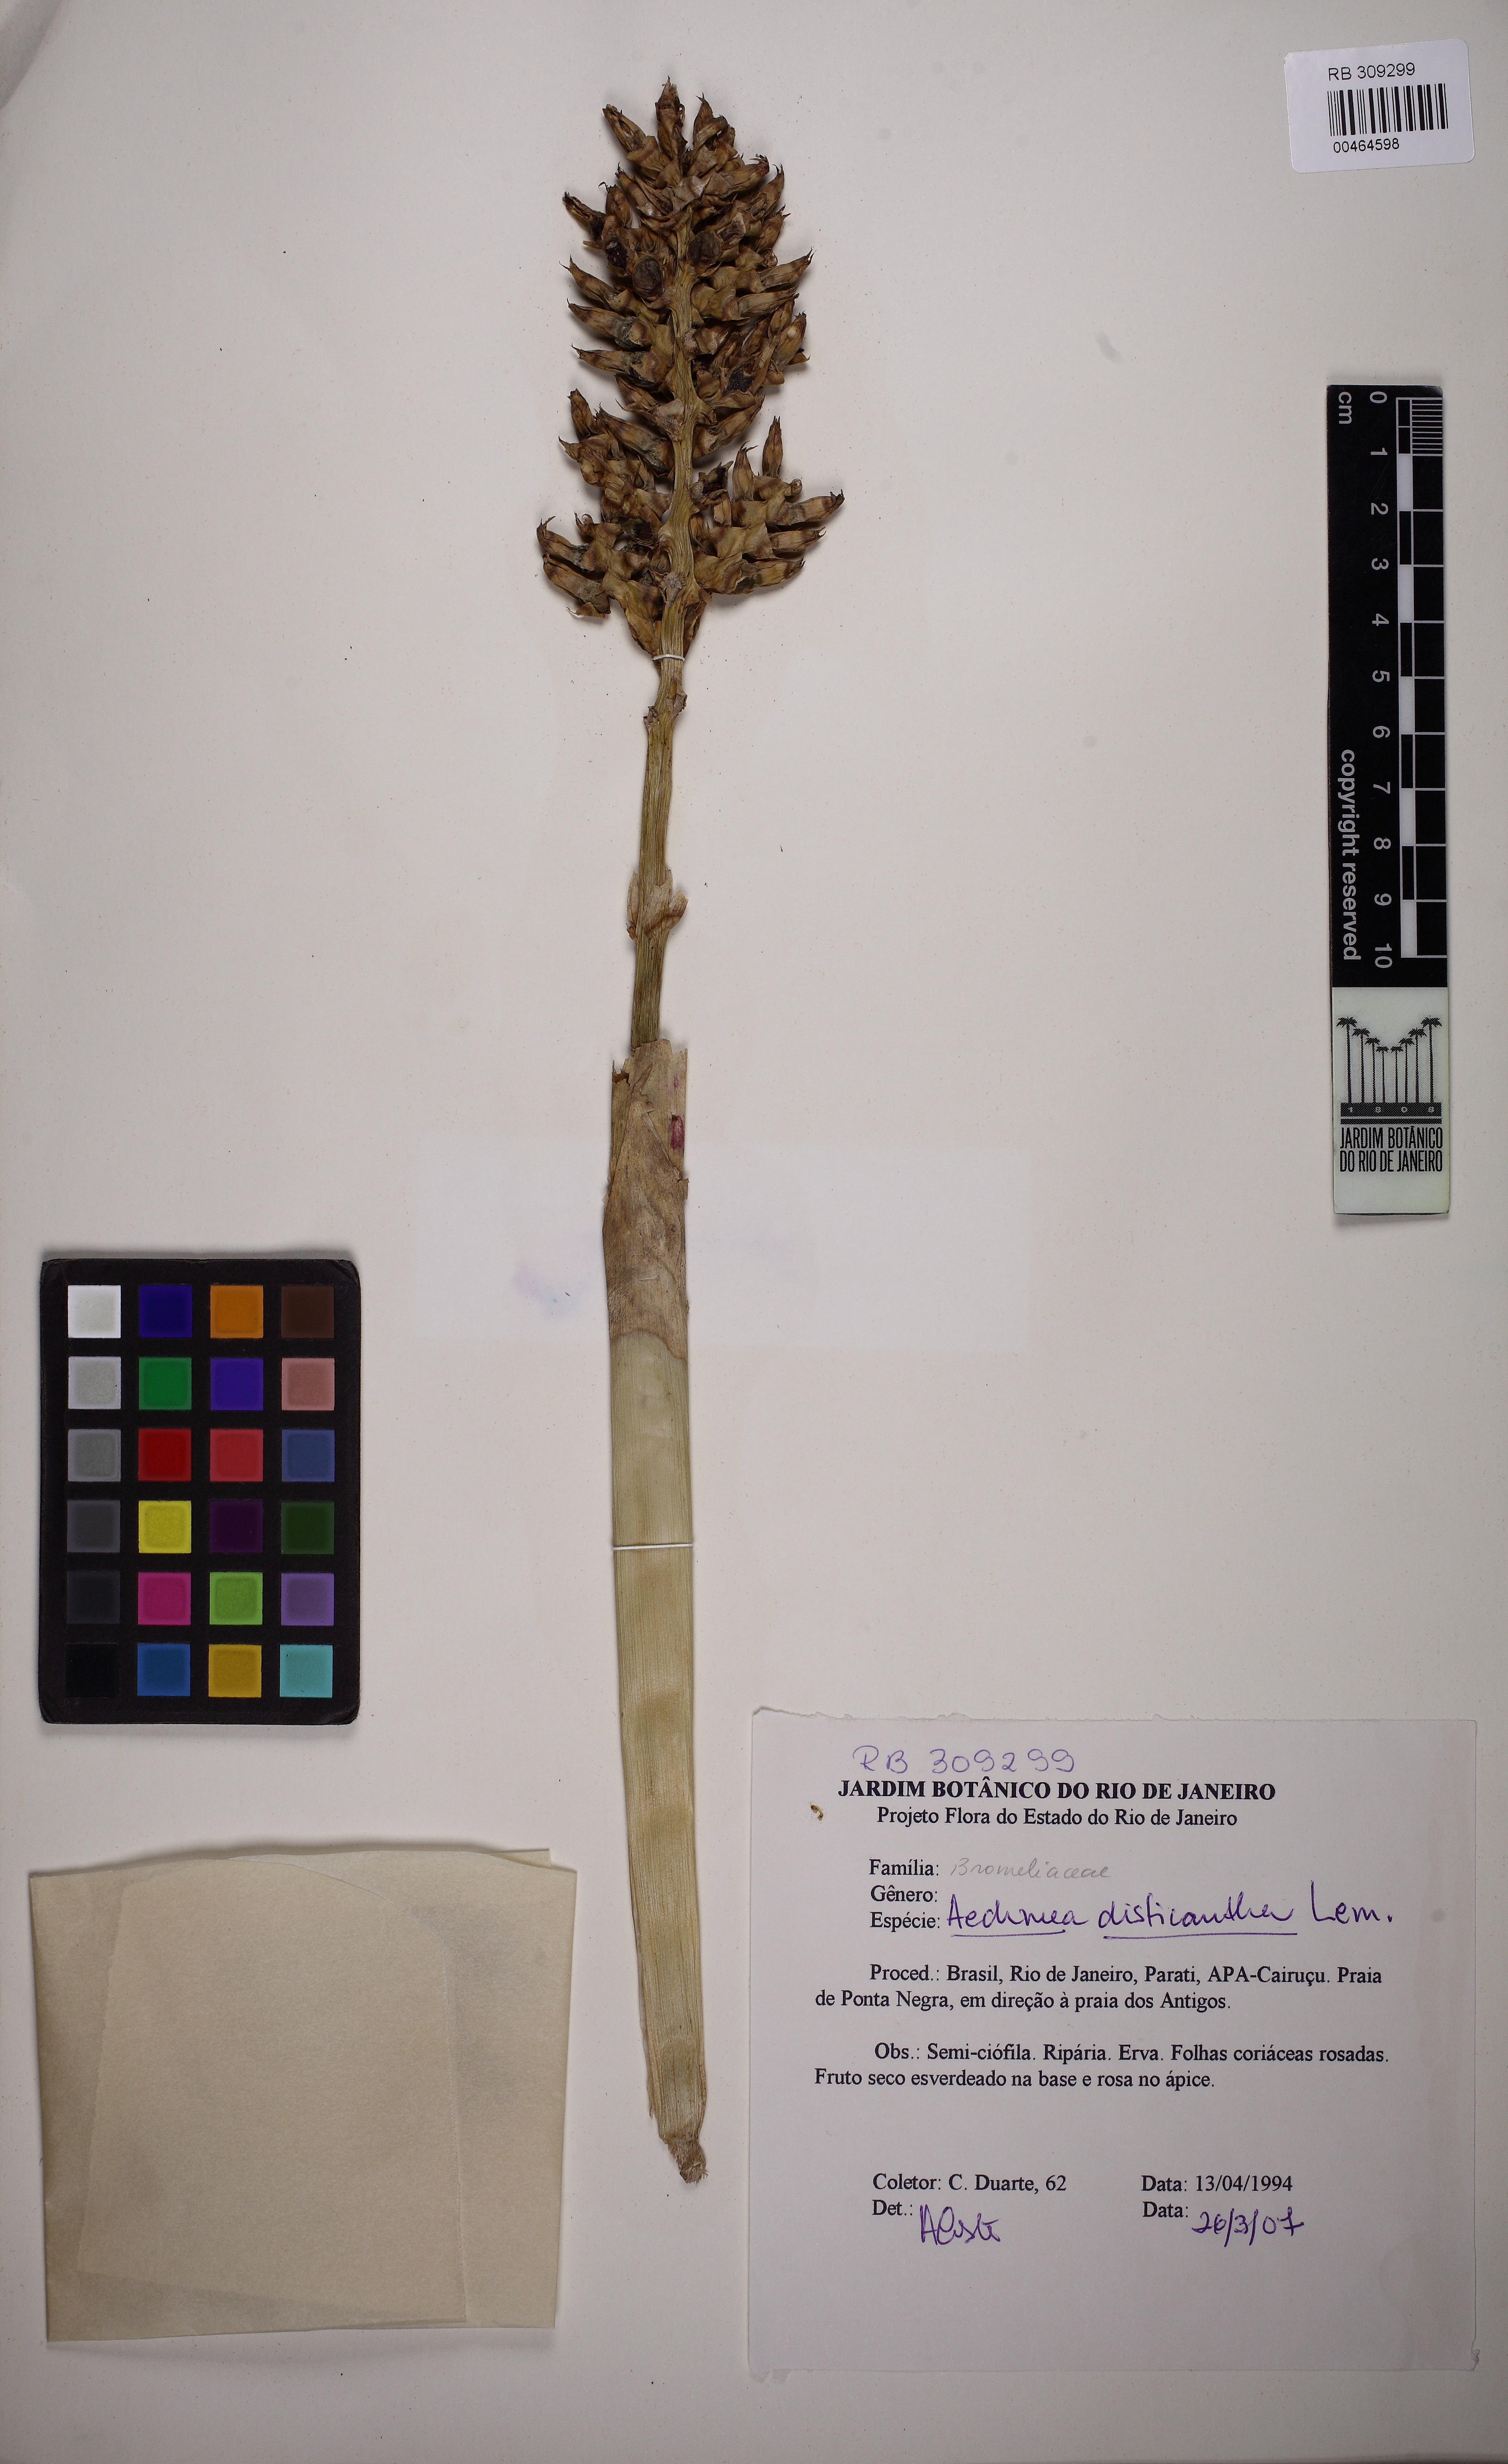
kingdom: Plantae
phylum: Tracheophyta
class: Liliopsida
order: Poales
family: Bromeliaceae
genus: Aechmea
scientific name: Aechmea distichantha
